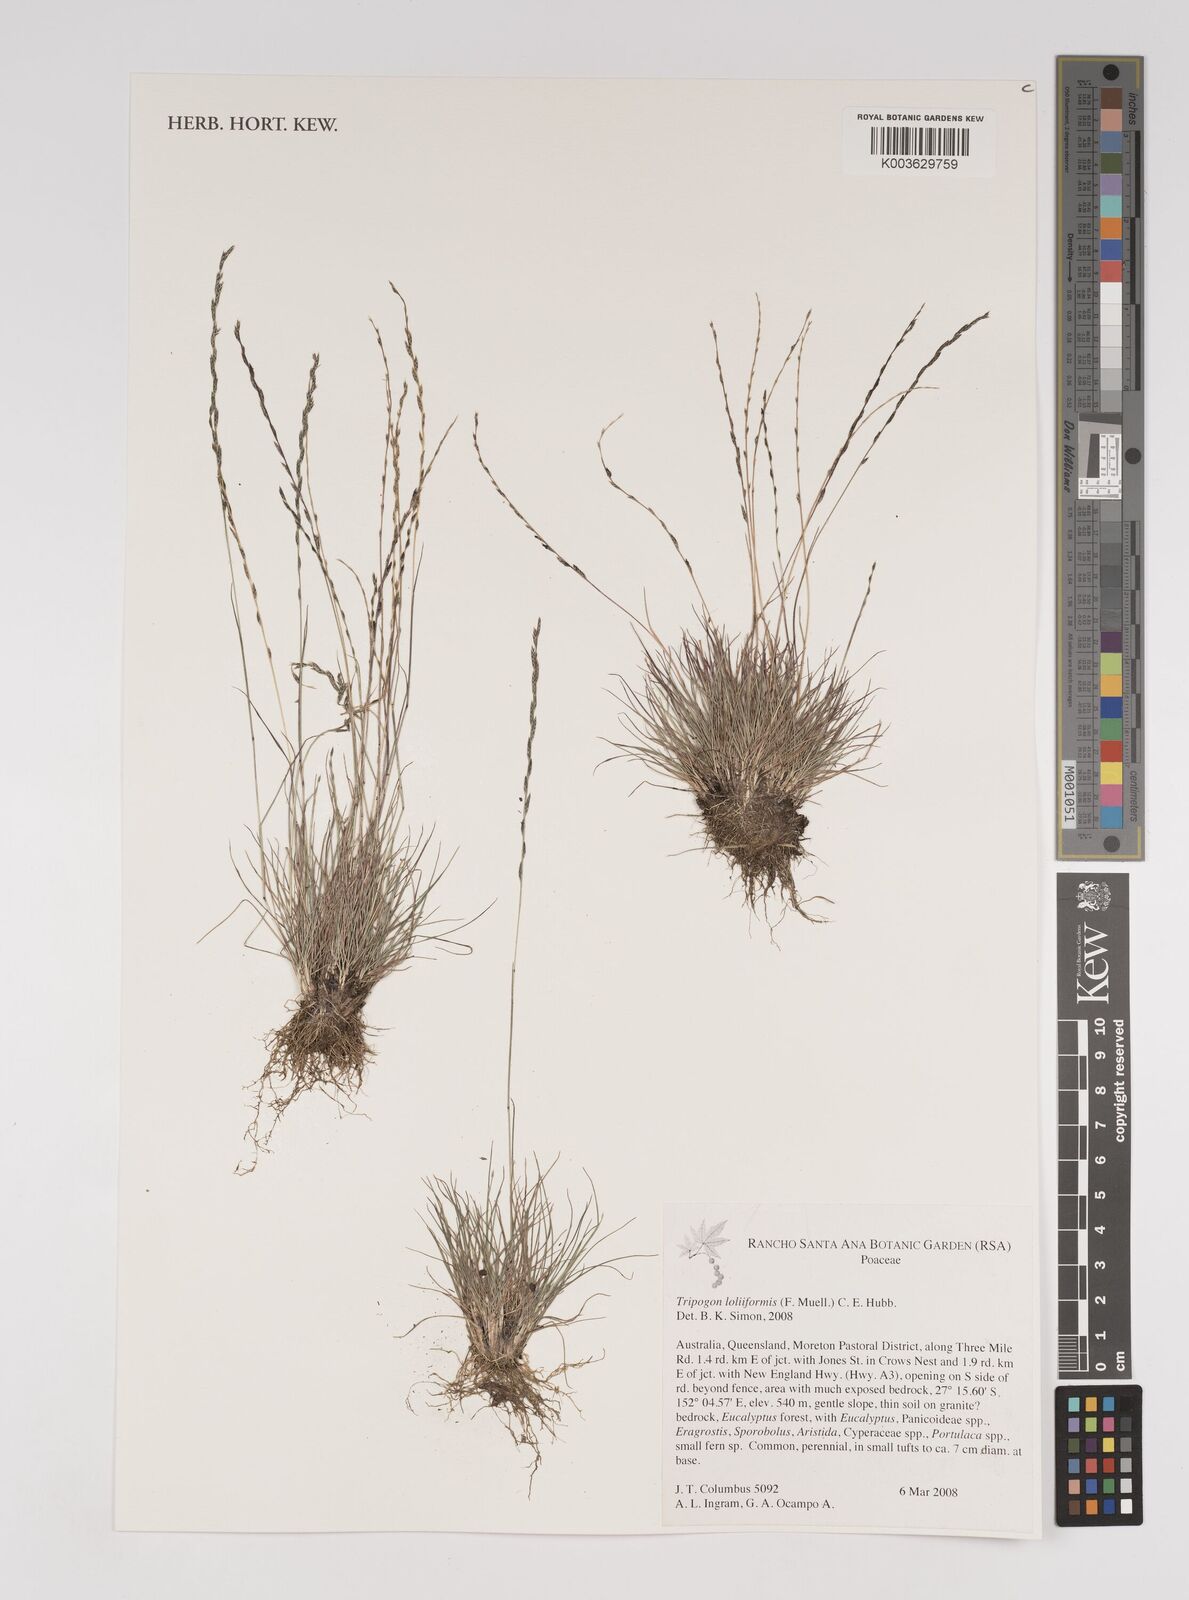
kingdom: Plantae
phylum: Tracheophyta
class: Liliopsida
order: Poales
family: Poaceae
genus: Tripogonella
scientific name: Tripogonella loliiformis
